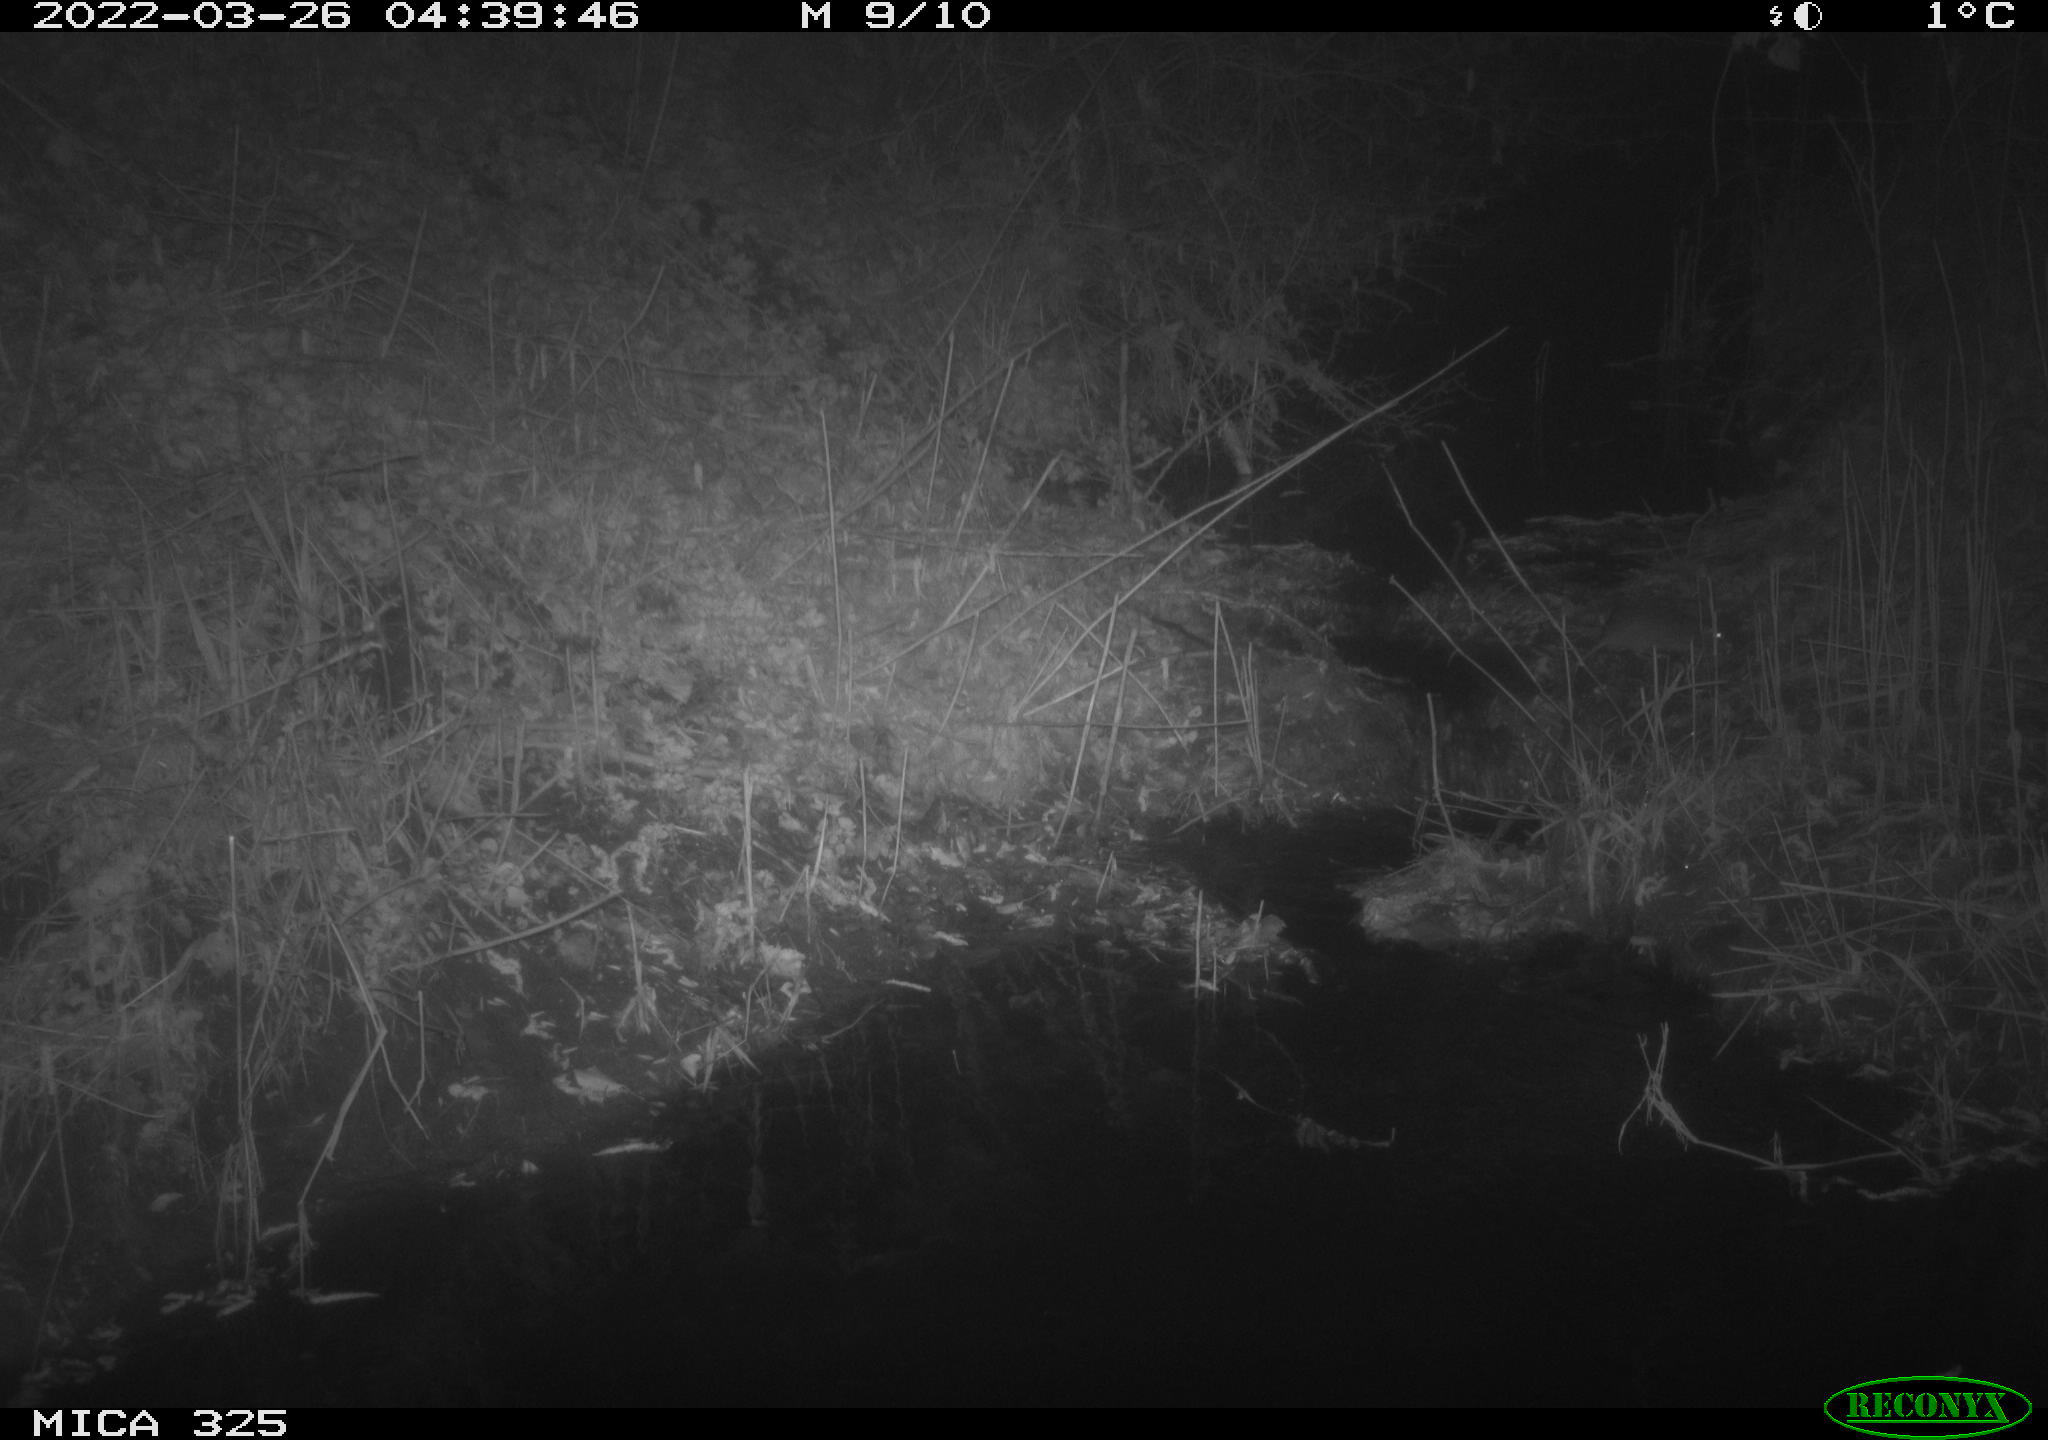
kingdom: Animalia
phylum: Chordata
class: Mammalia
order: Rodentia
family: Muridae
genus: Rattus
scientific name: Rattus norvegicus
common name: Brown rat
